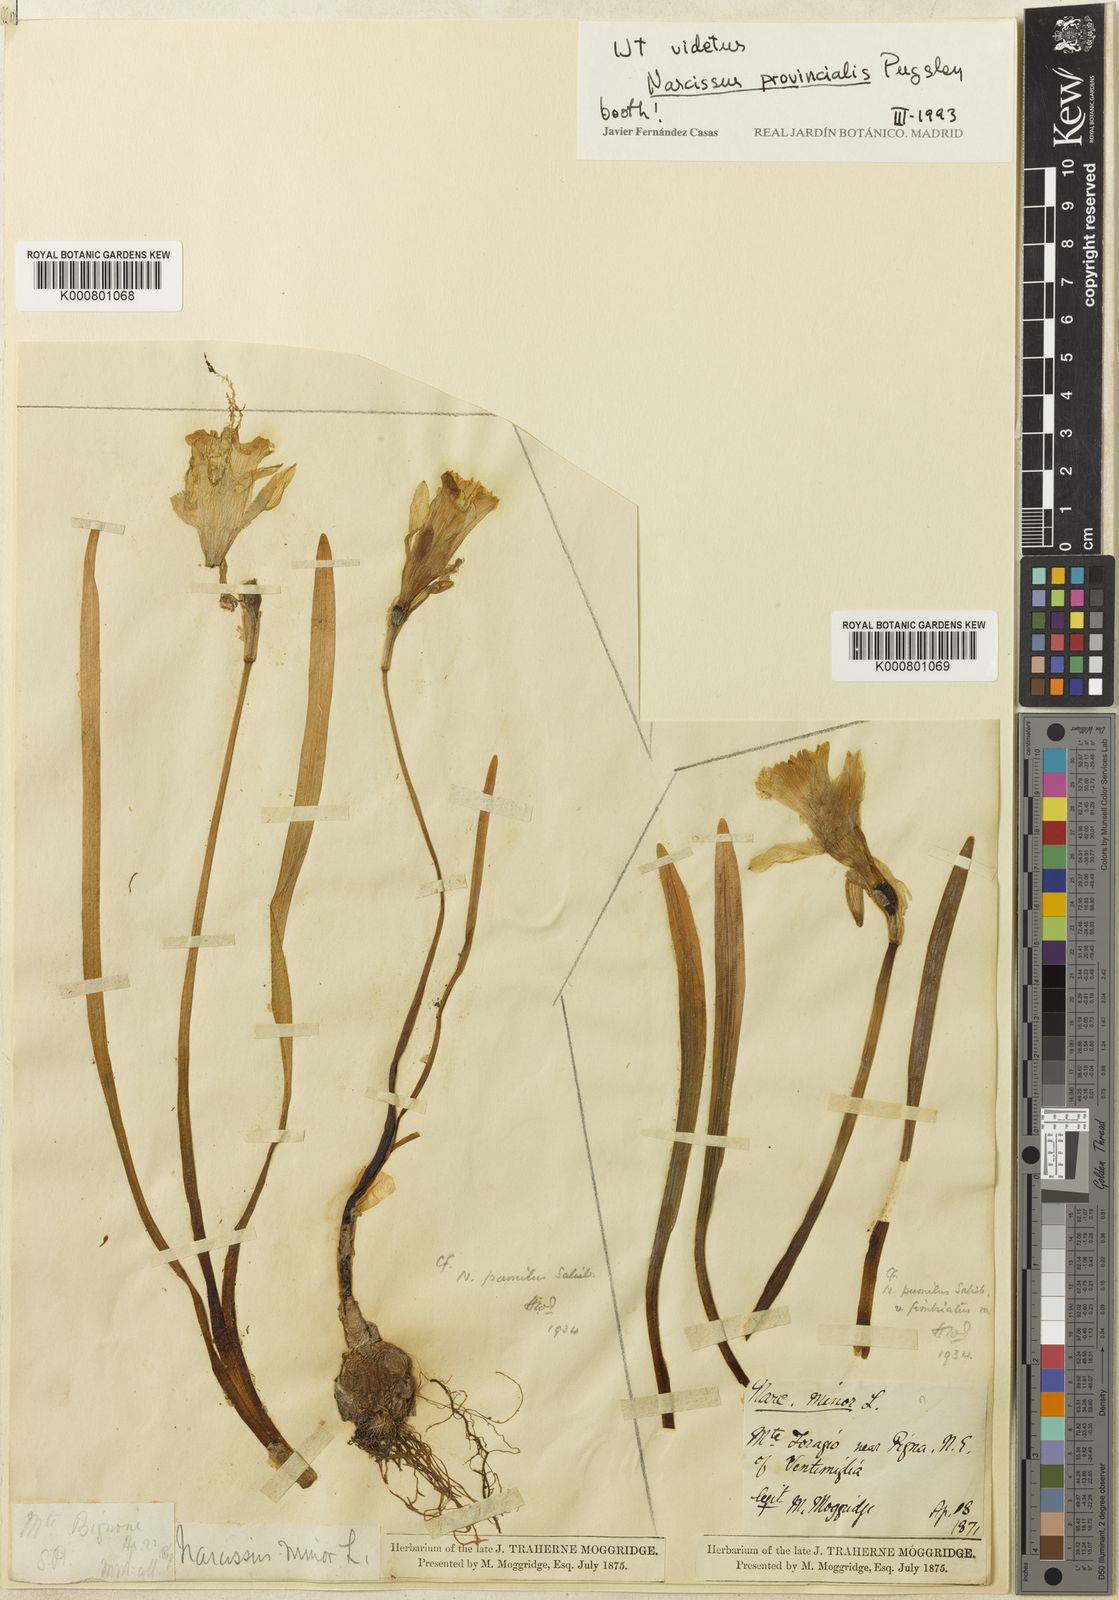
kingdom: Plantae
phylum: Tracheophyta
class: Liliopsida
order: Asparagales
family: Amaryllidaceae
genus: Narcissus
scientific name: Narcissus
